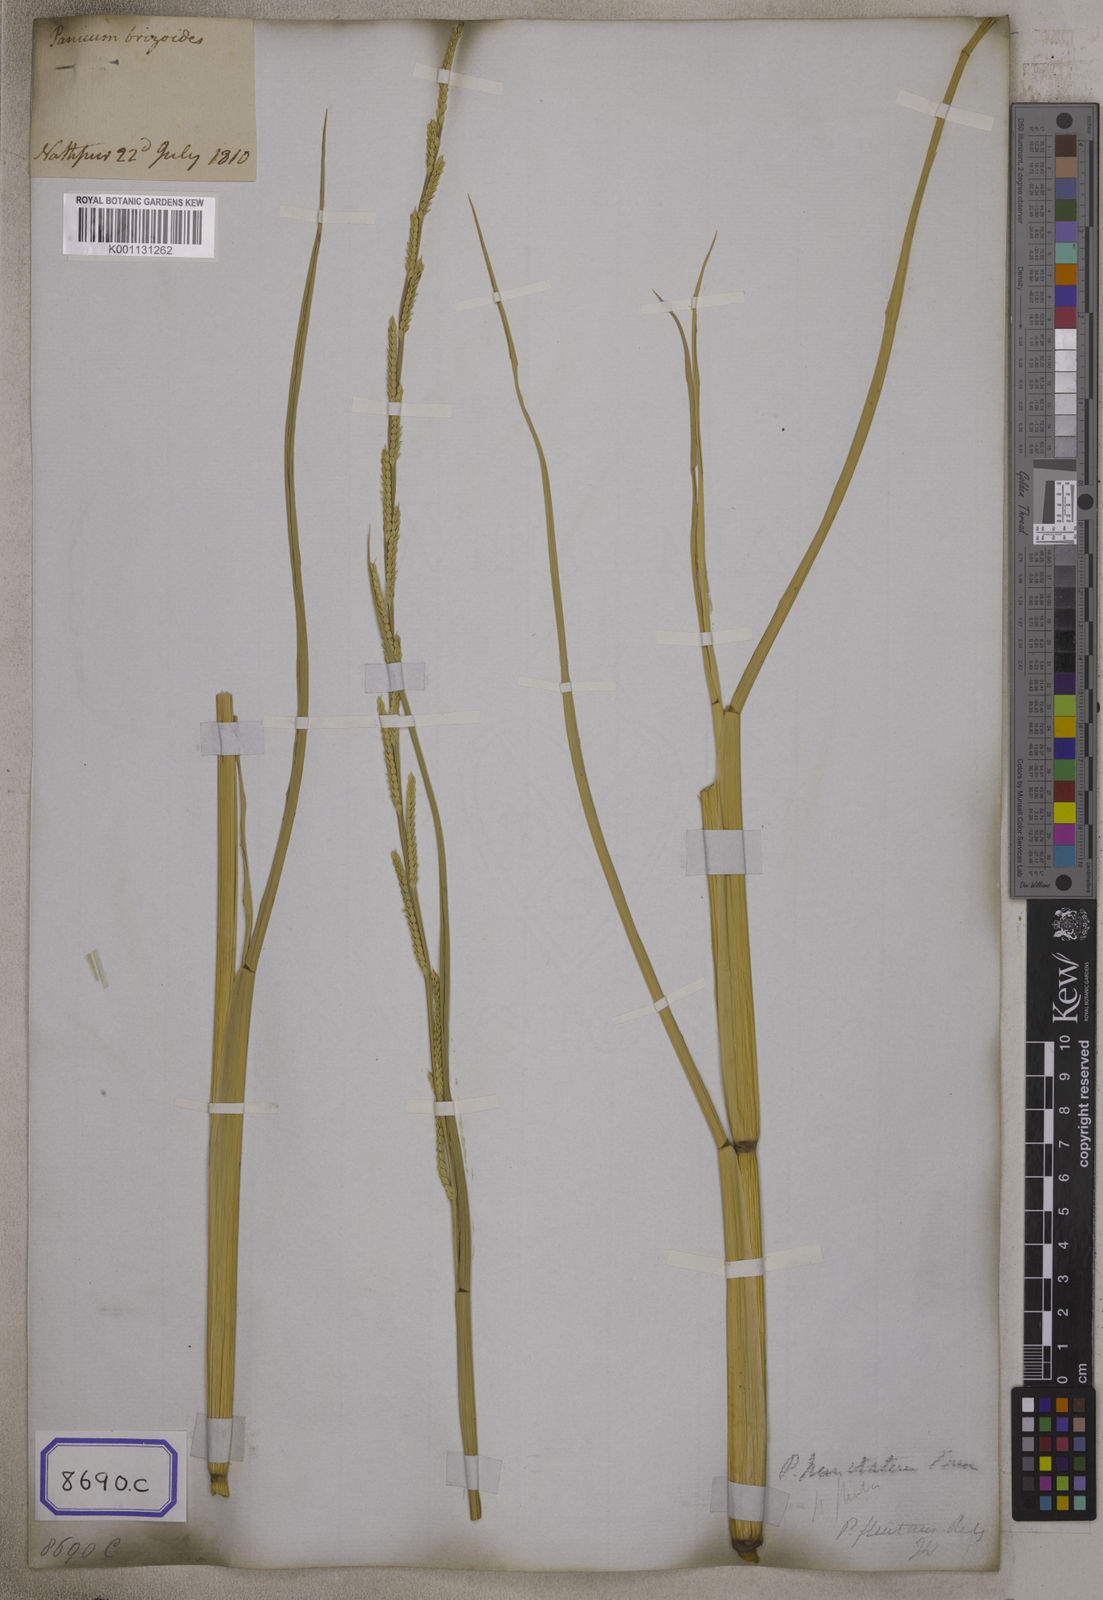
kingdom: Plantae
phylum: Tracheophyta
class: Liliopsida
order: Poales
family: Poaceae
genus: Echinochloa
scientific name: Echinochloa colonum
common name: Jungle rice
